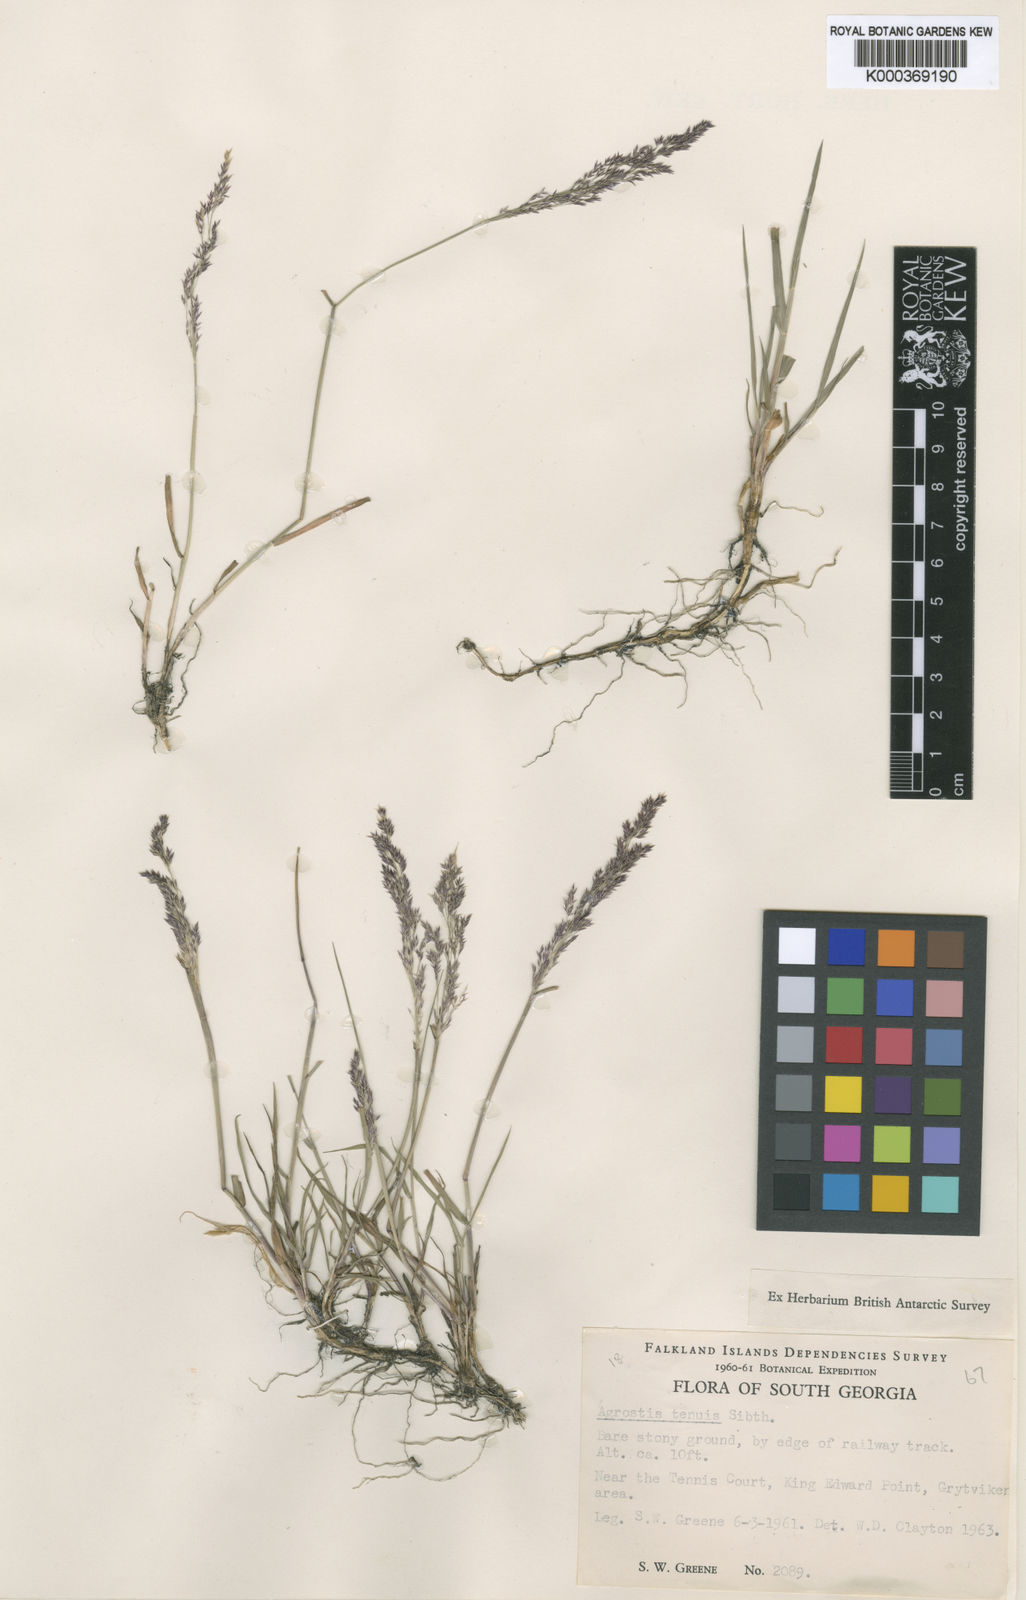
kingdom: Plantae
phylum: Tracheophyta
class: Liliopsida
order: Poales
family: Poaceae
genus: Agrostis
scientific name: Agrostis capillaris
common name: Colonial bentgrass
